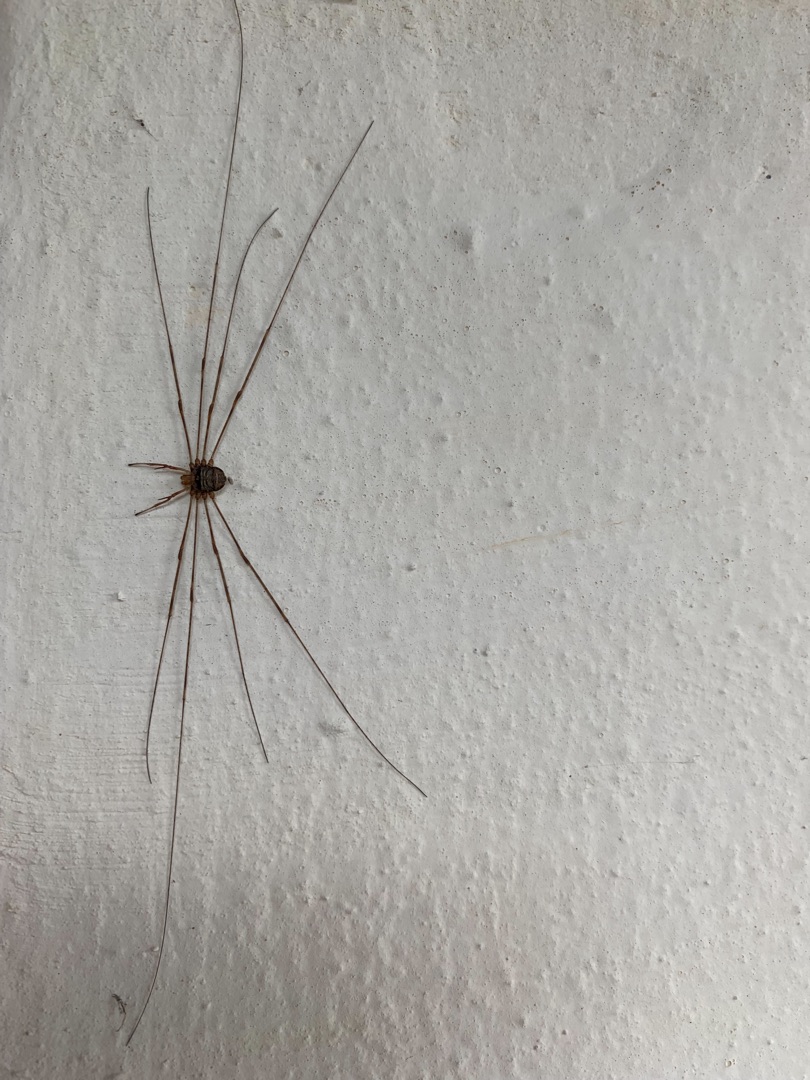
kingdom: Animalia
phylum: Arthropoda
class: Arachnida
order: Opiliones
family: Phalangiidae
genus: Dicranopalpus
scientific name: Dicranopalpus ramosus
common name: Gaffelmejer
